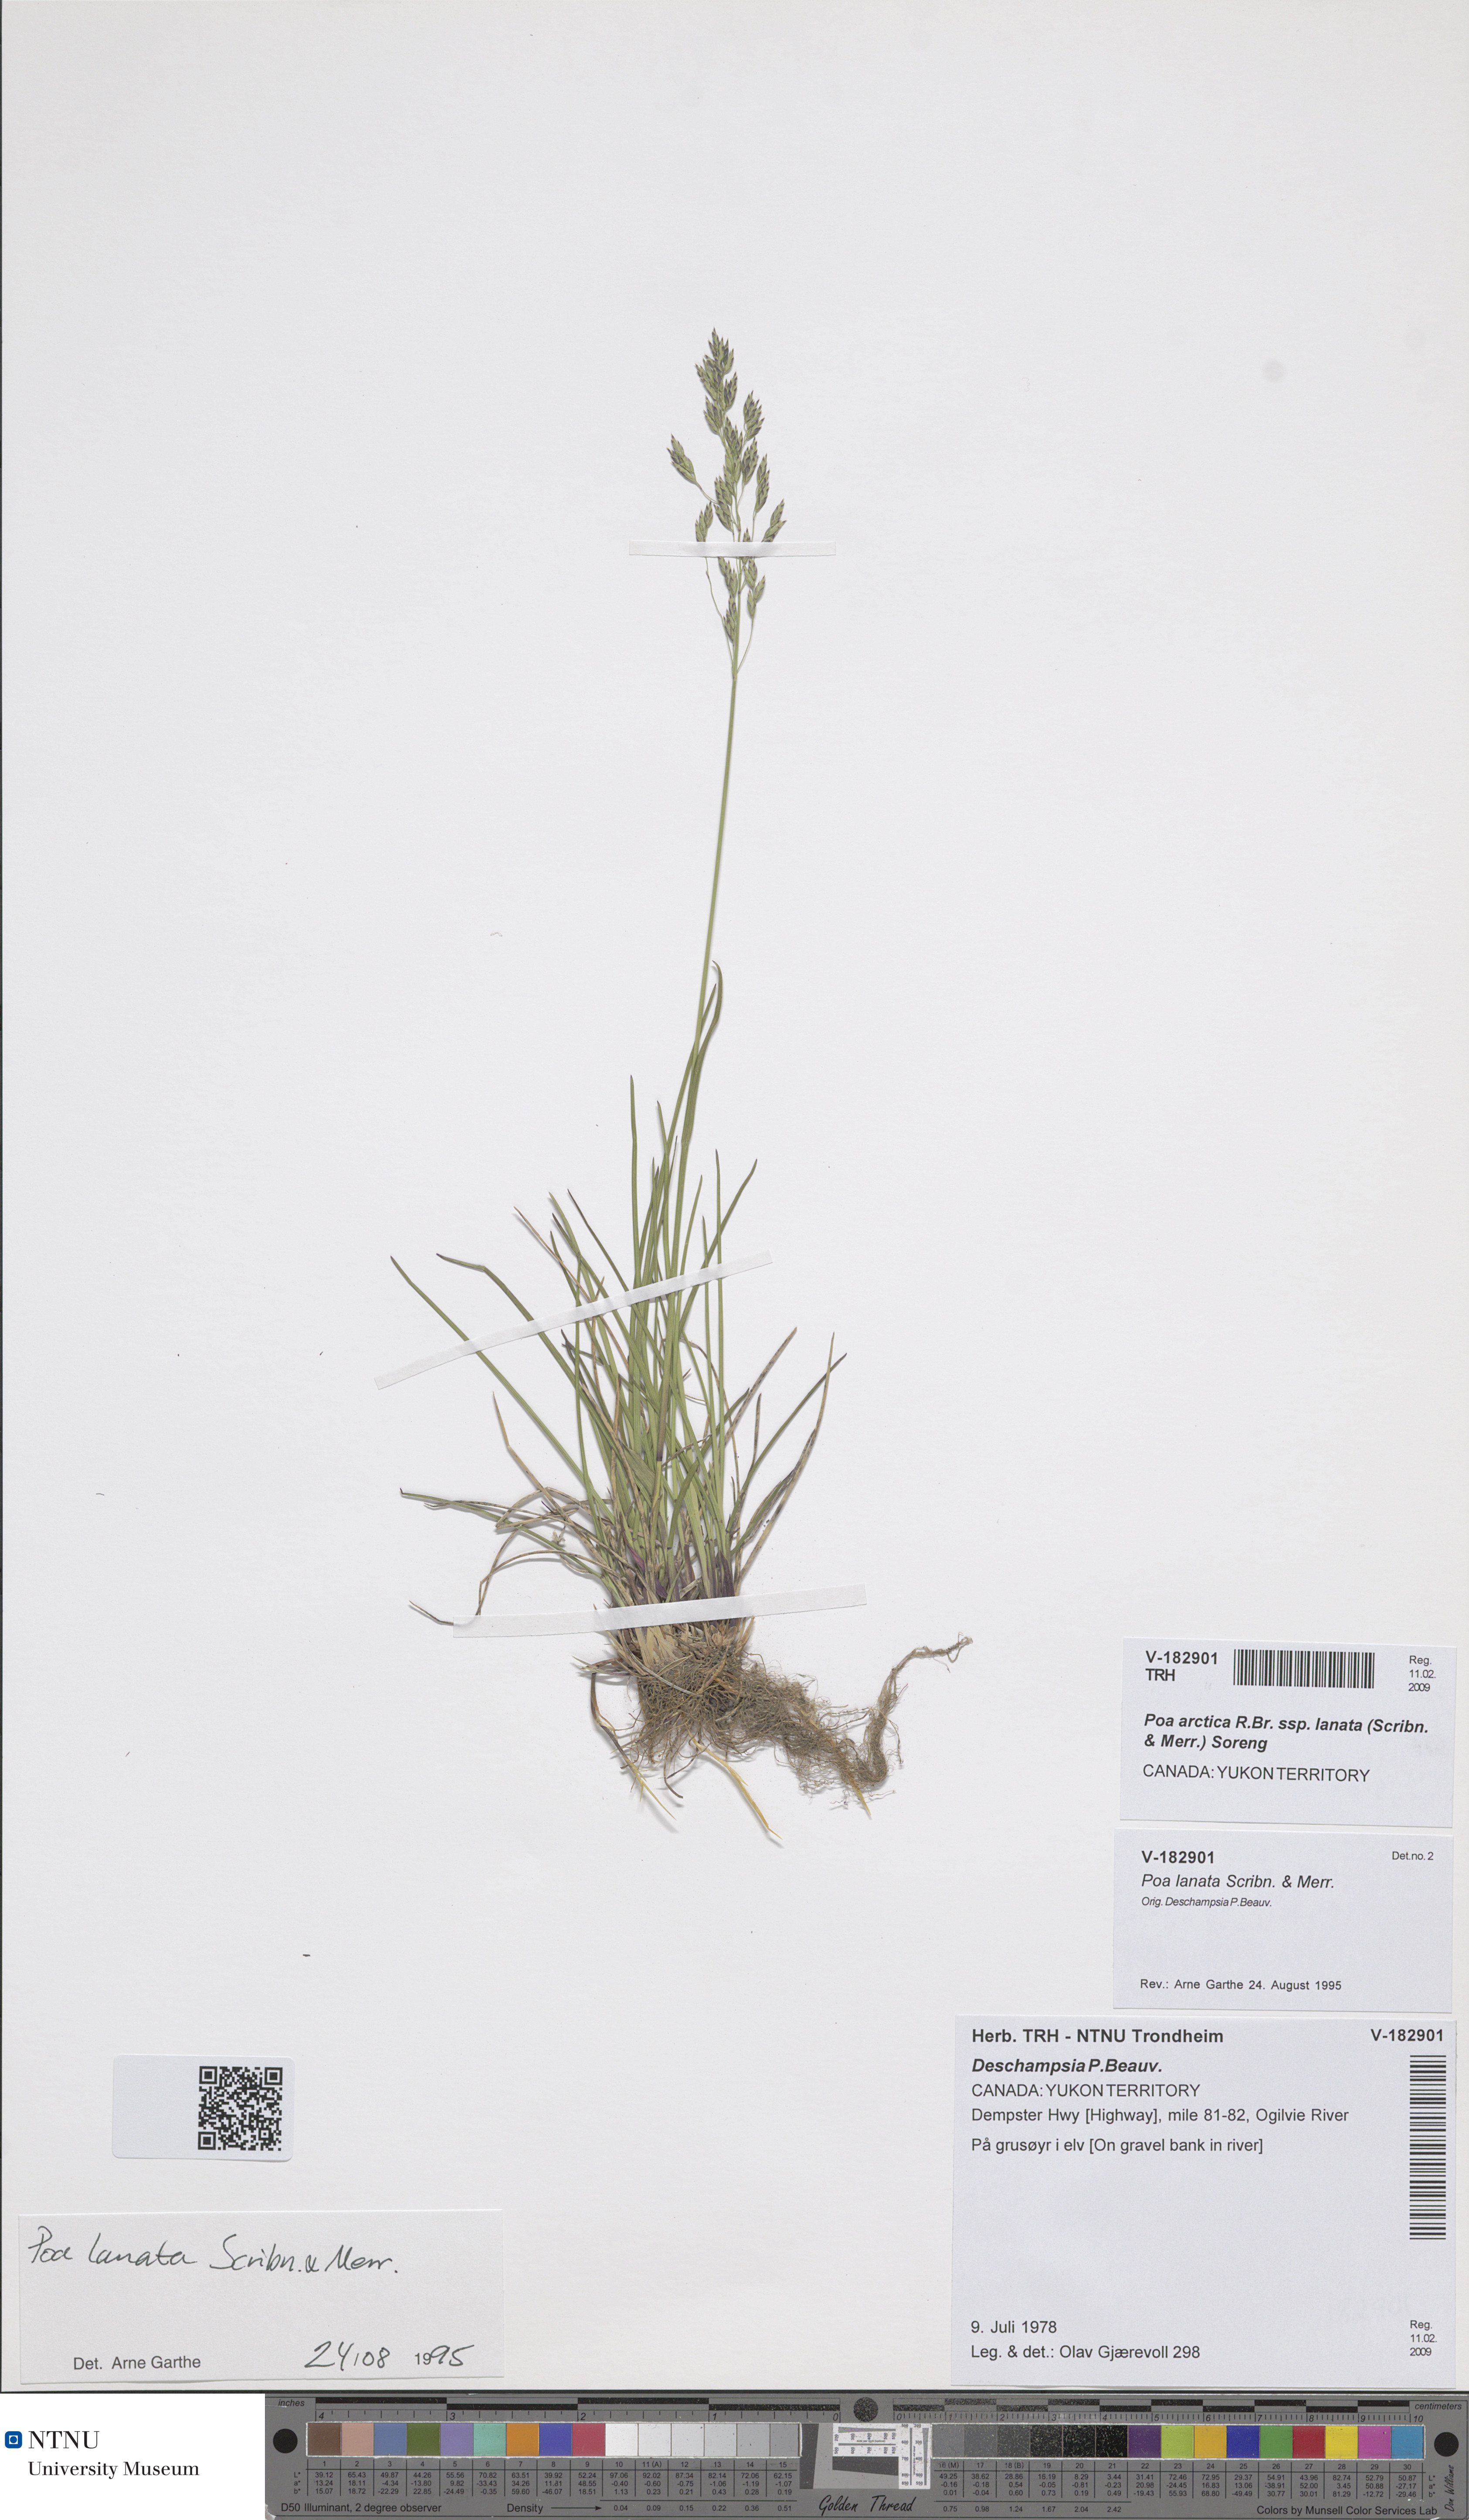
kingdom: Plantae
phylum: Tracheophyta
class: Liliopsida
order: Poales
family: Poaceae
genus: Poa
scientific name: Poa lanata
